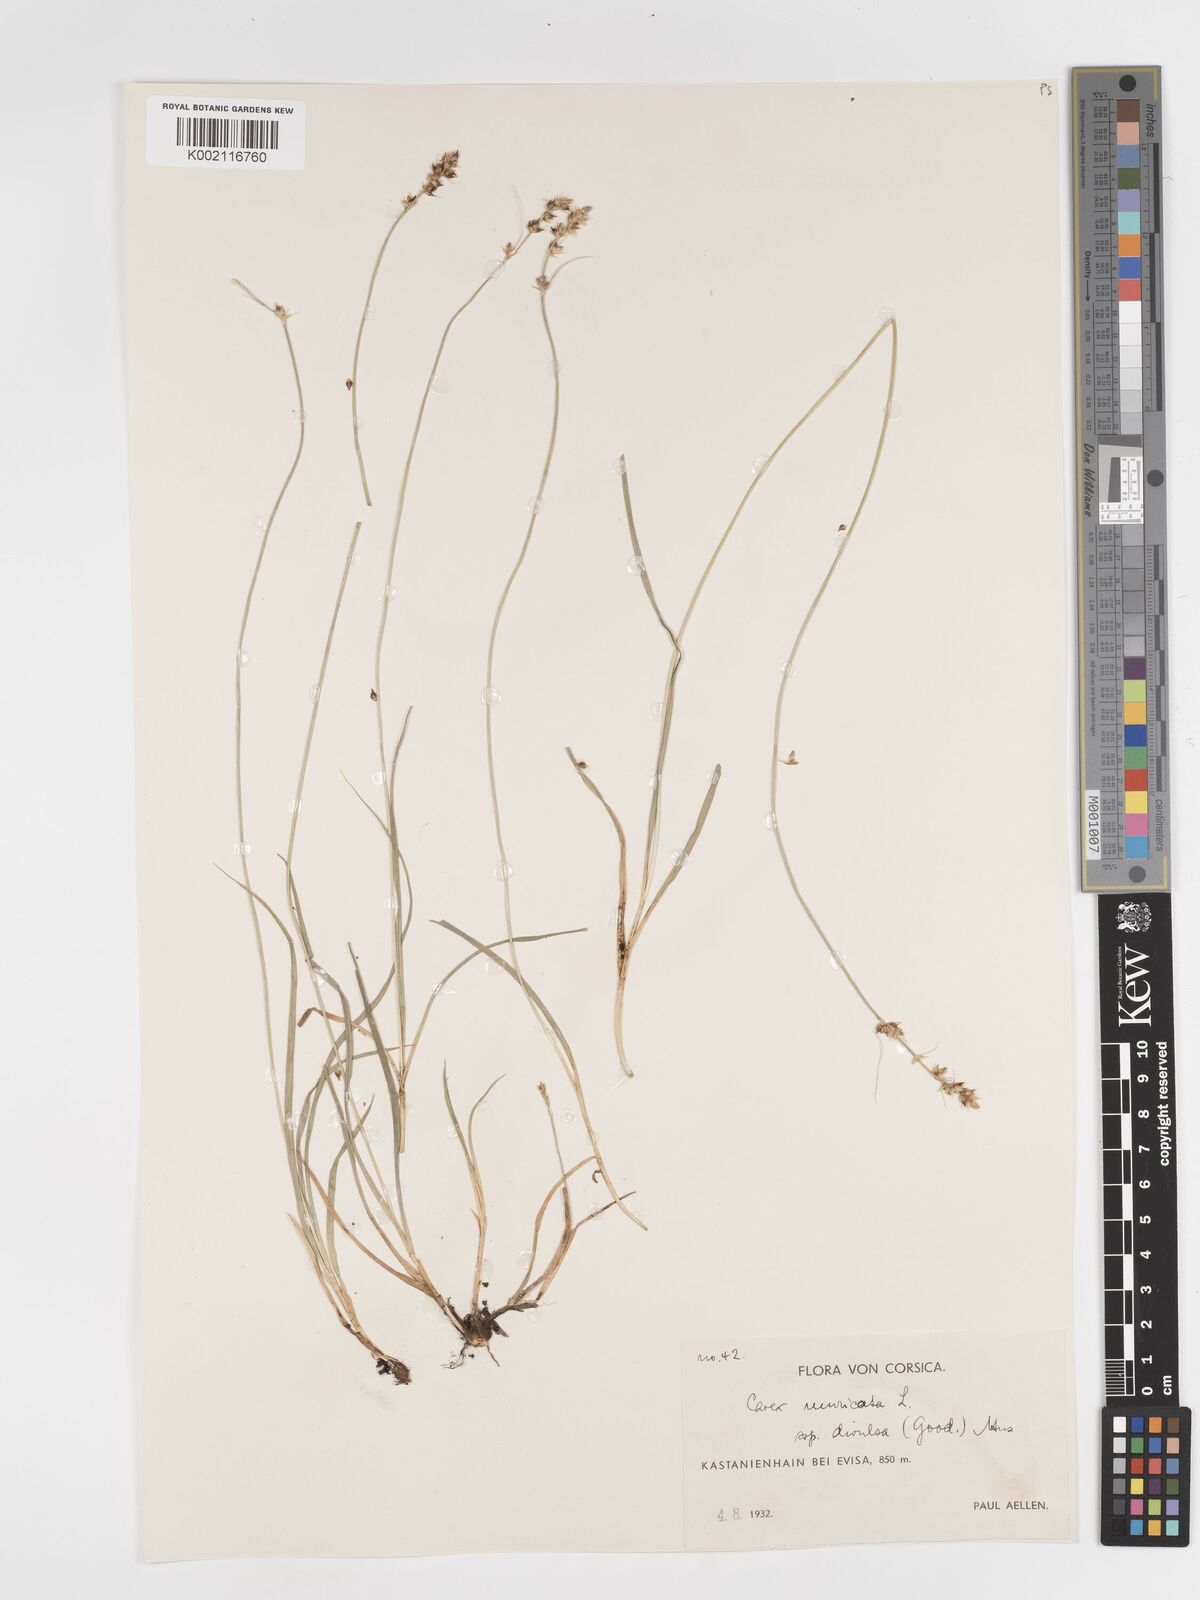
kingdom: Plantae
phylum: Tracheophyta
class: Liliopsida
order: Poales
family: Cyperaceae
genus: Carex
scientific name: Carex divulsa
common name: Grassland sedge
